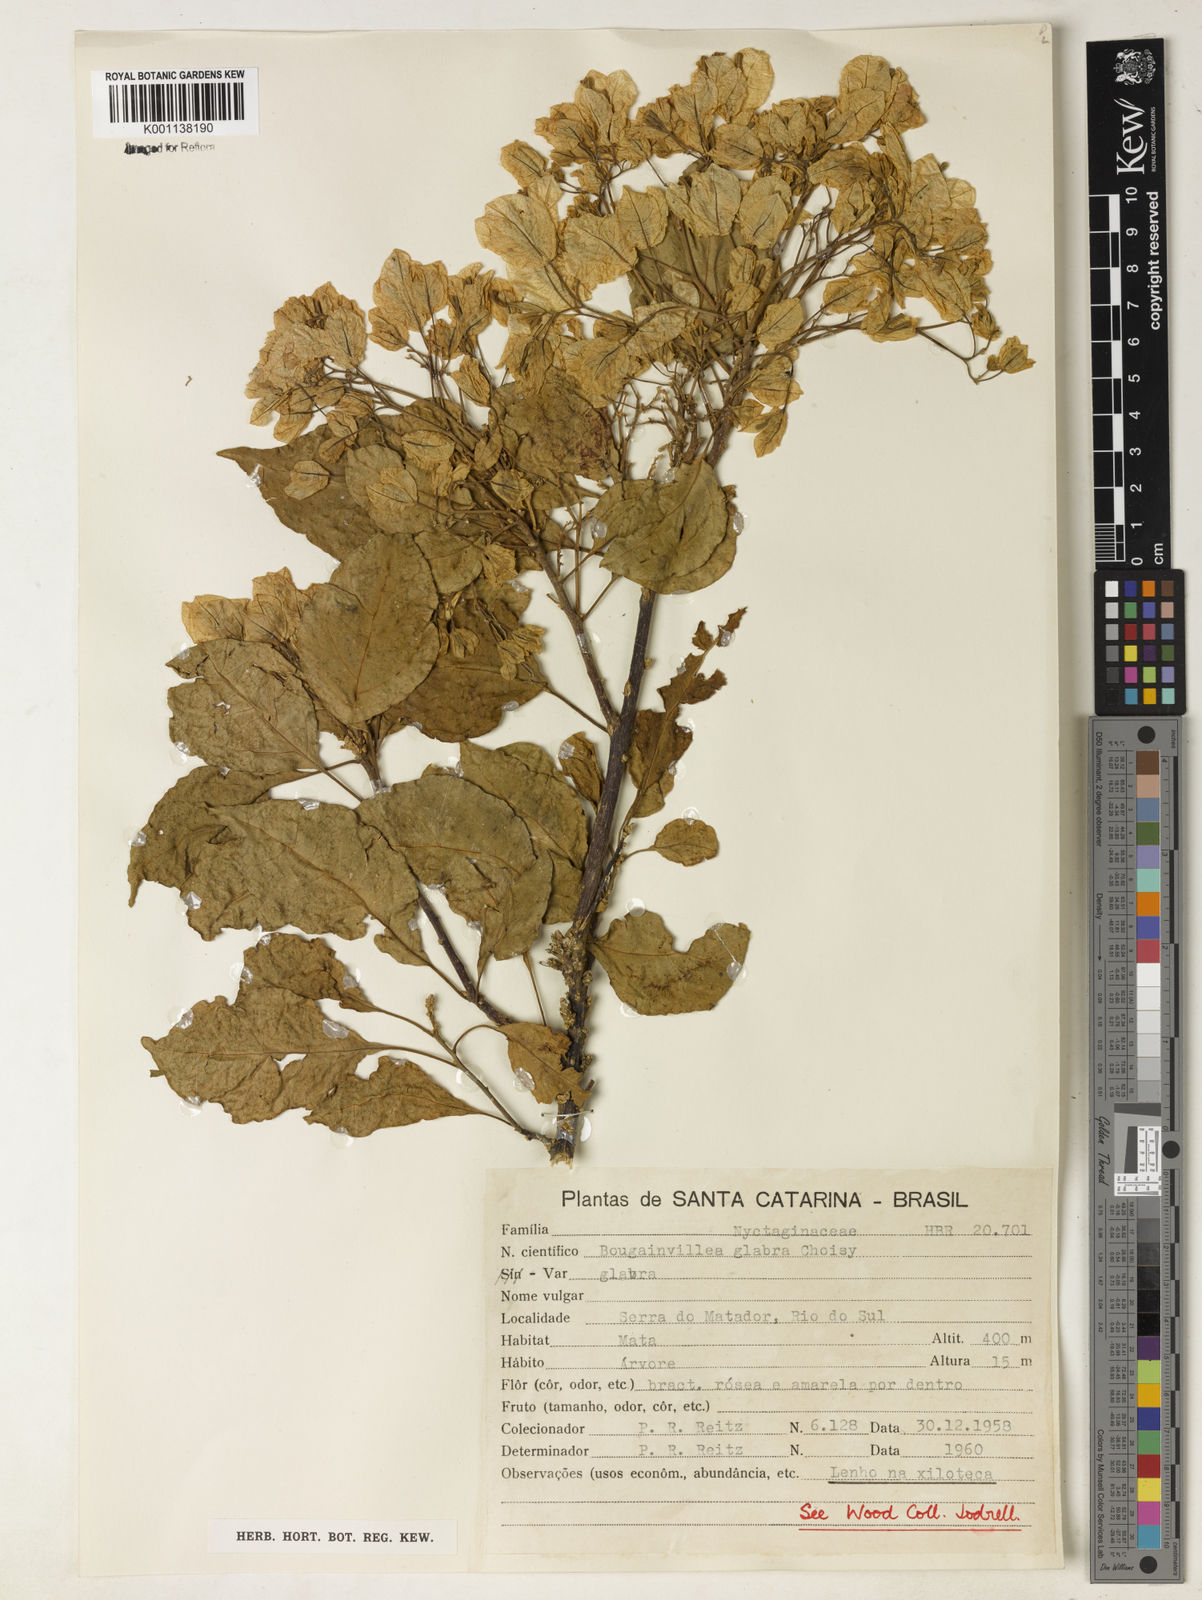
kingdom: Plantae
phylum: Tracheophyta
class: Magnoliopsida
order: Caryophyllales
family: Nyctaginaceae
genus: Bougainvillea
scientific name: Bougainvillea glabra
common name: Paperflower
